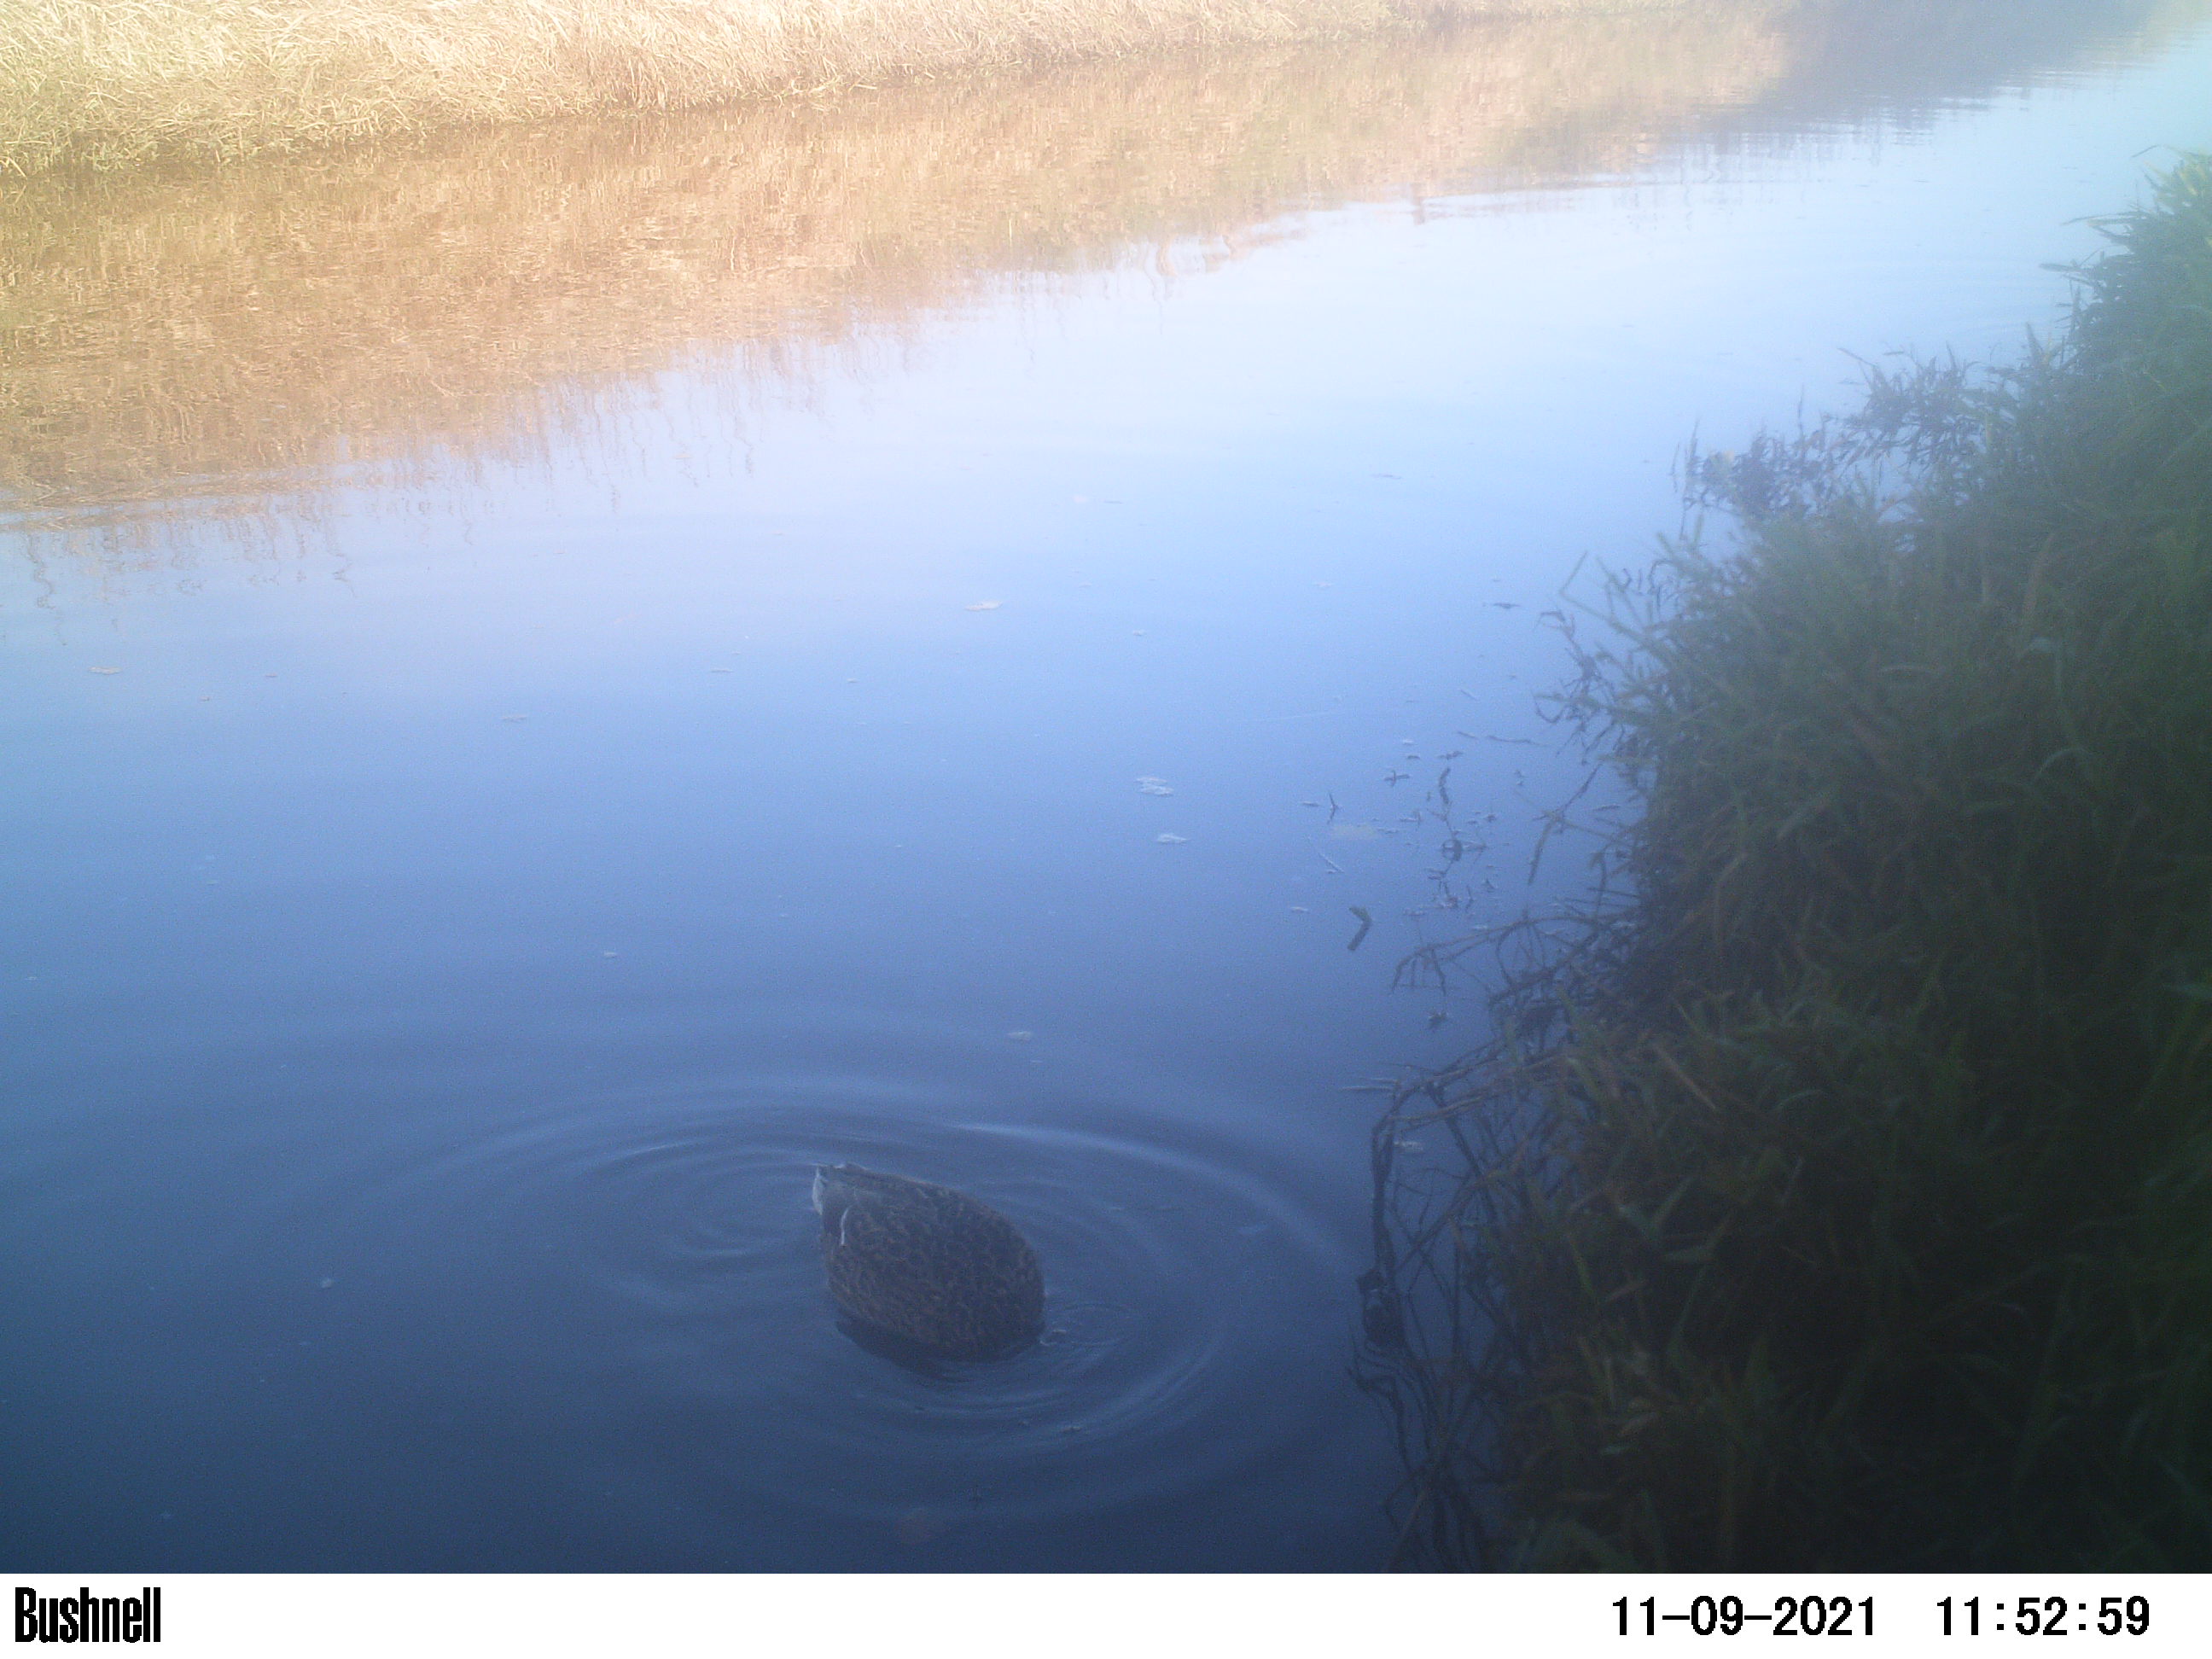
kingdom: Animalia
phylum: Chordata
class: Aves
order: Gruiformes
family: Rallidae
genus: Gallinula
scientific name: Gallinula chloropus
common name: Common moorhen
